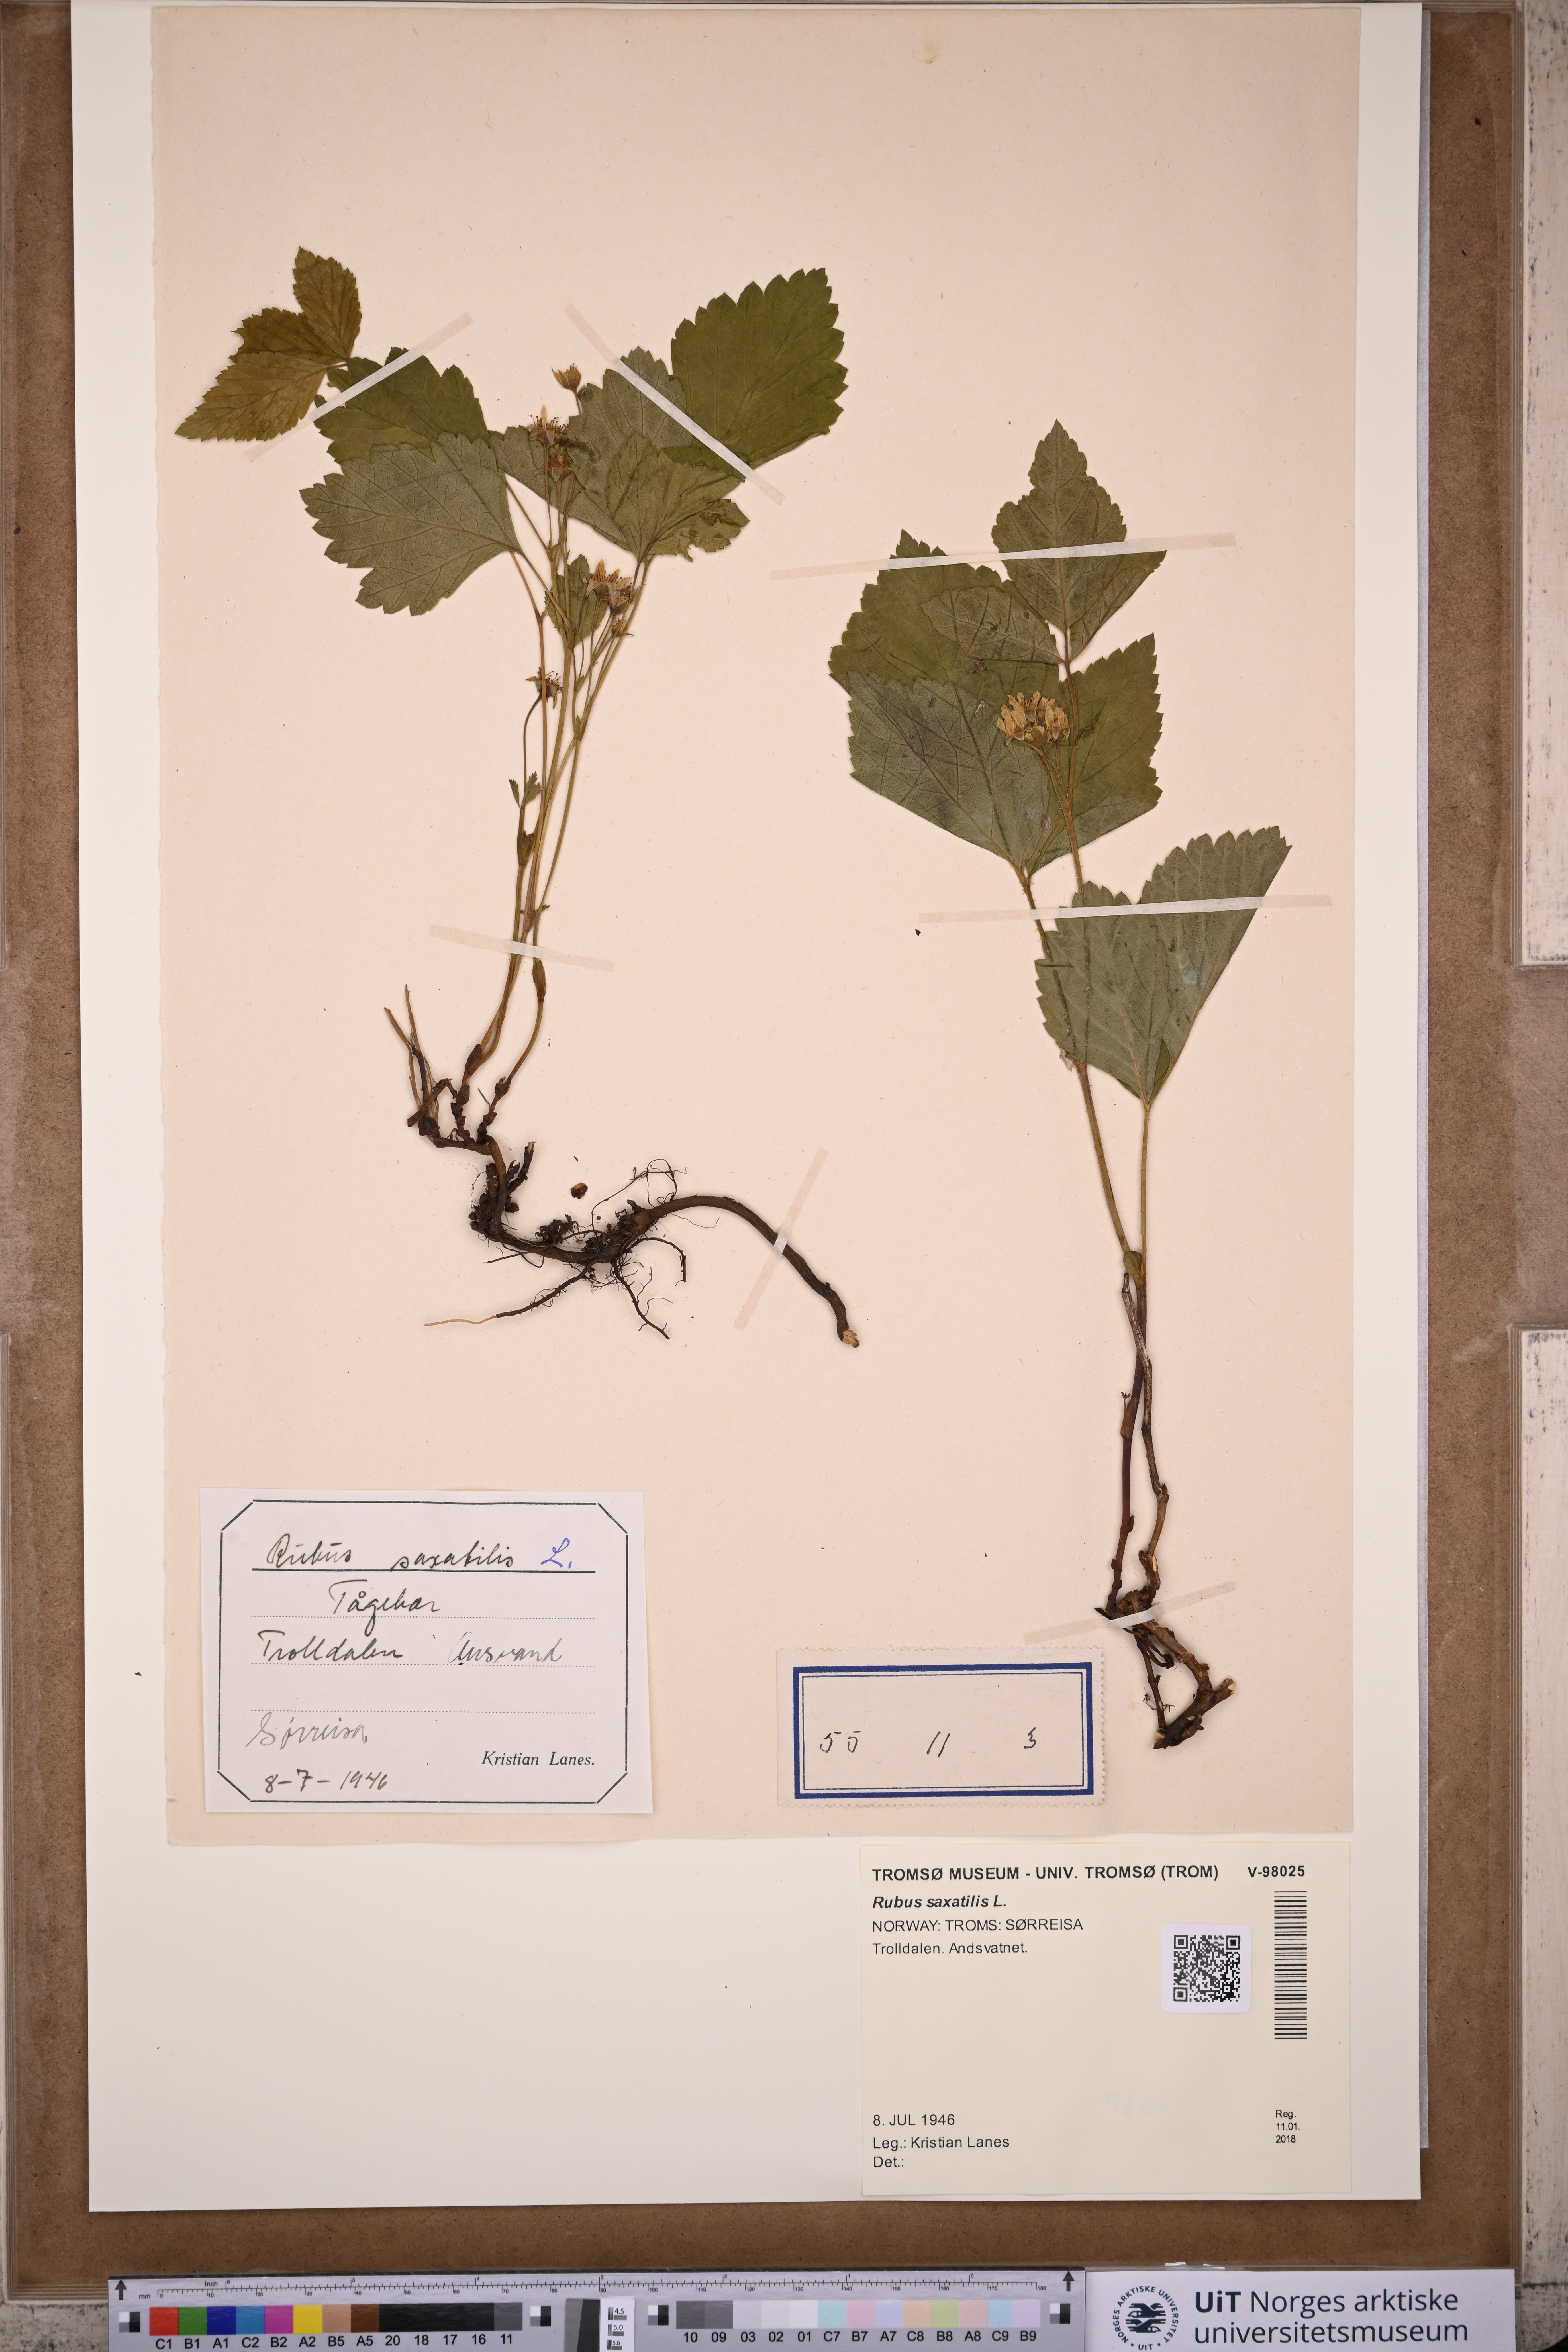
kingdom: Plantae
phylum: Tracheophyta
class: Magnoliopsida
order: Rosales
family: Rosaceae
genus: Rubus
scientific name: Rubus saxatilis
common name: Stone bramble
